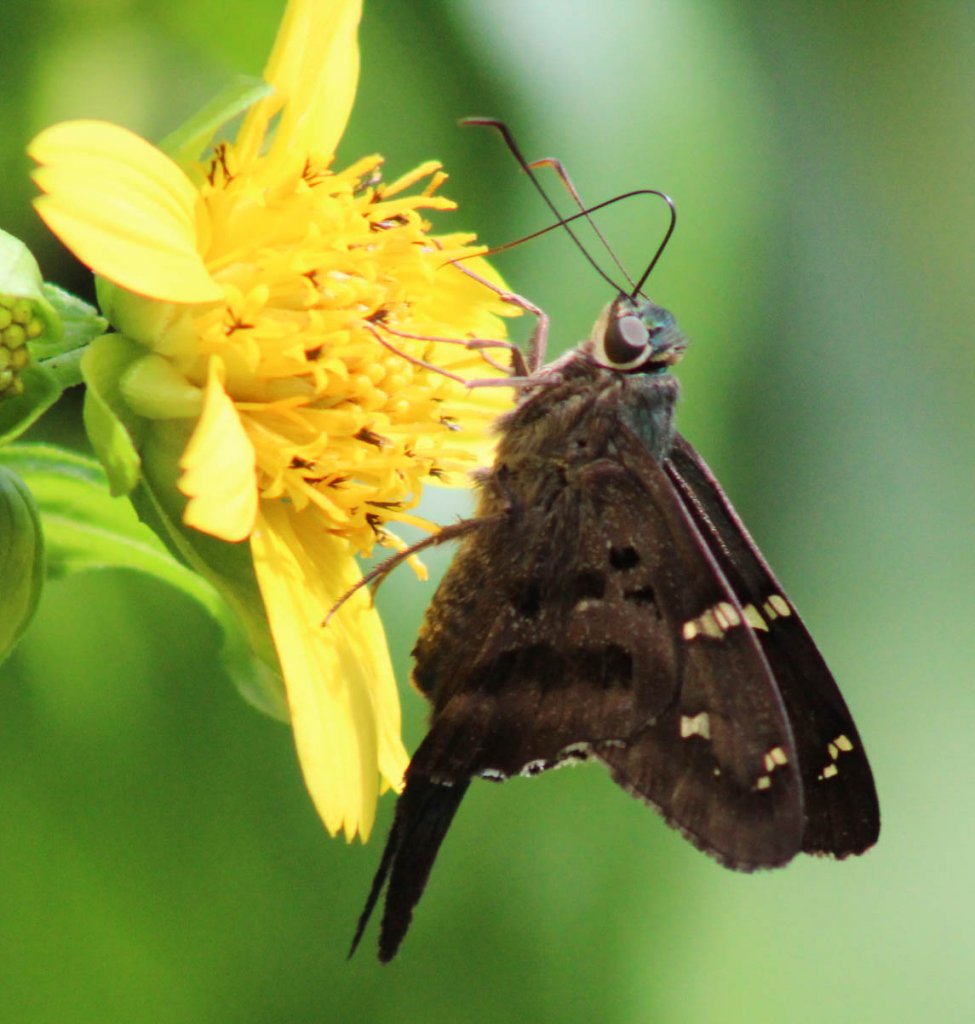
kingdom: Animalia
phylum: Arthropoda
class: Insecta
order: Lepidoptera
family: Hesperiidae
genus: Urbanus
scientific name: Urbanus proteus
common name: Long-tailed Skipper
